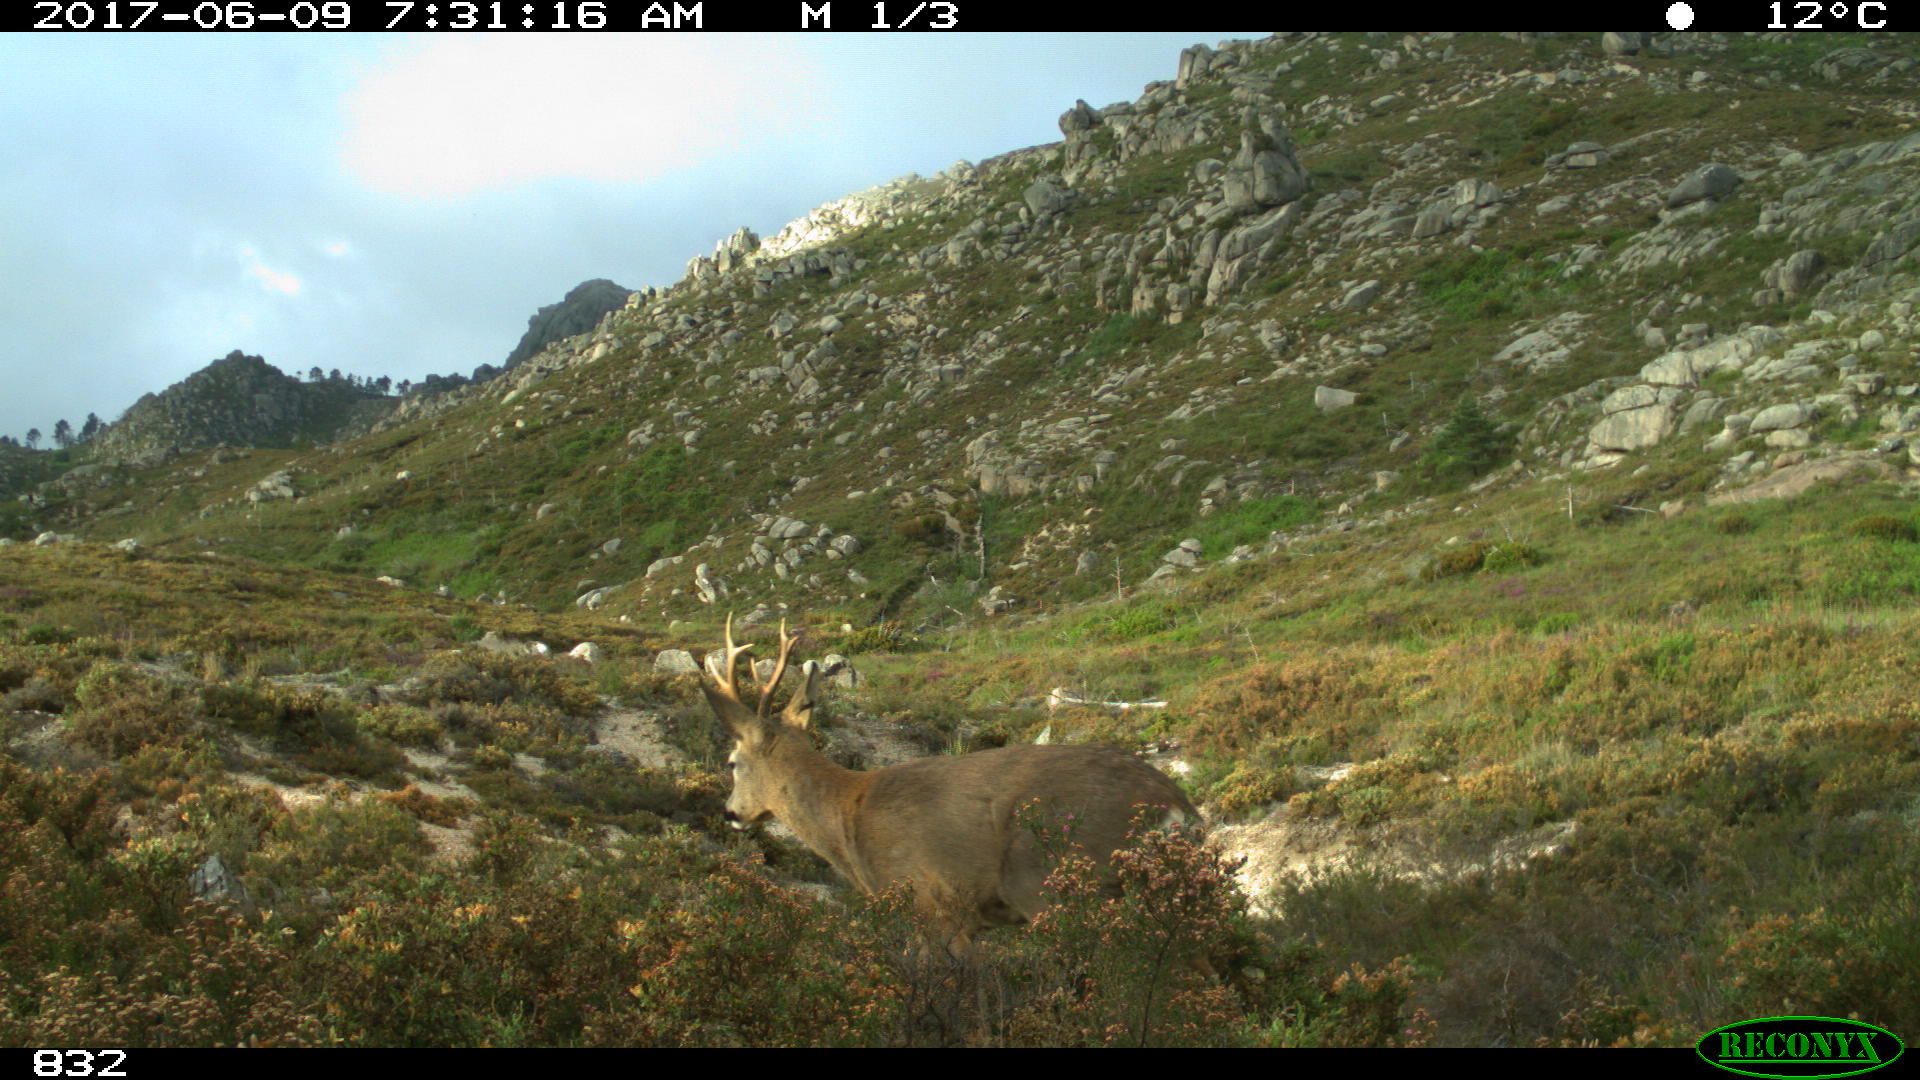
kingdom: Animalia
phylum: Chordata
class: Mammalia
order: Artiodactyla
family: Cervidae
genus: Capreolus
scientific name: Capreolus capreolus
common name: Western roe deer
